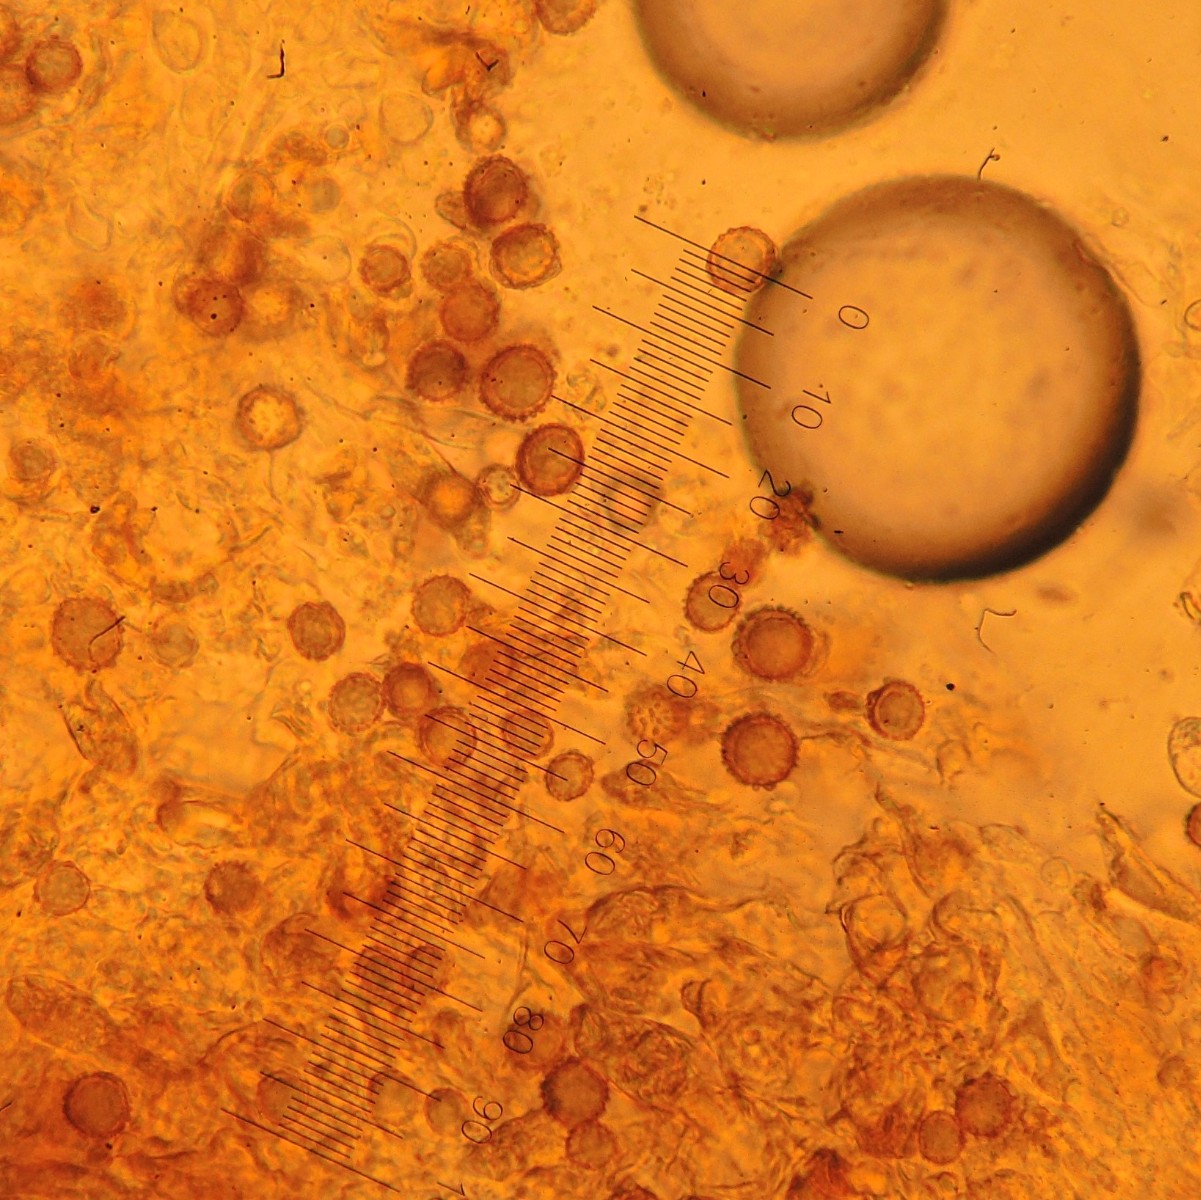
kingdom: Fungi
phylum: Basidiomycota
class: Agaricomycetes
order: Russulales
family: Russulaceae
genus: Russula
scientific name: Russula maculata
